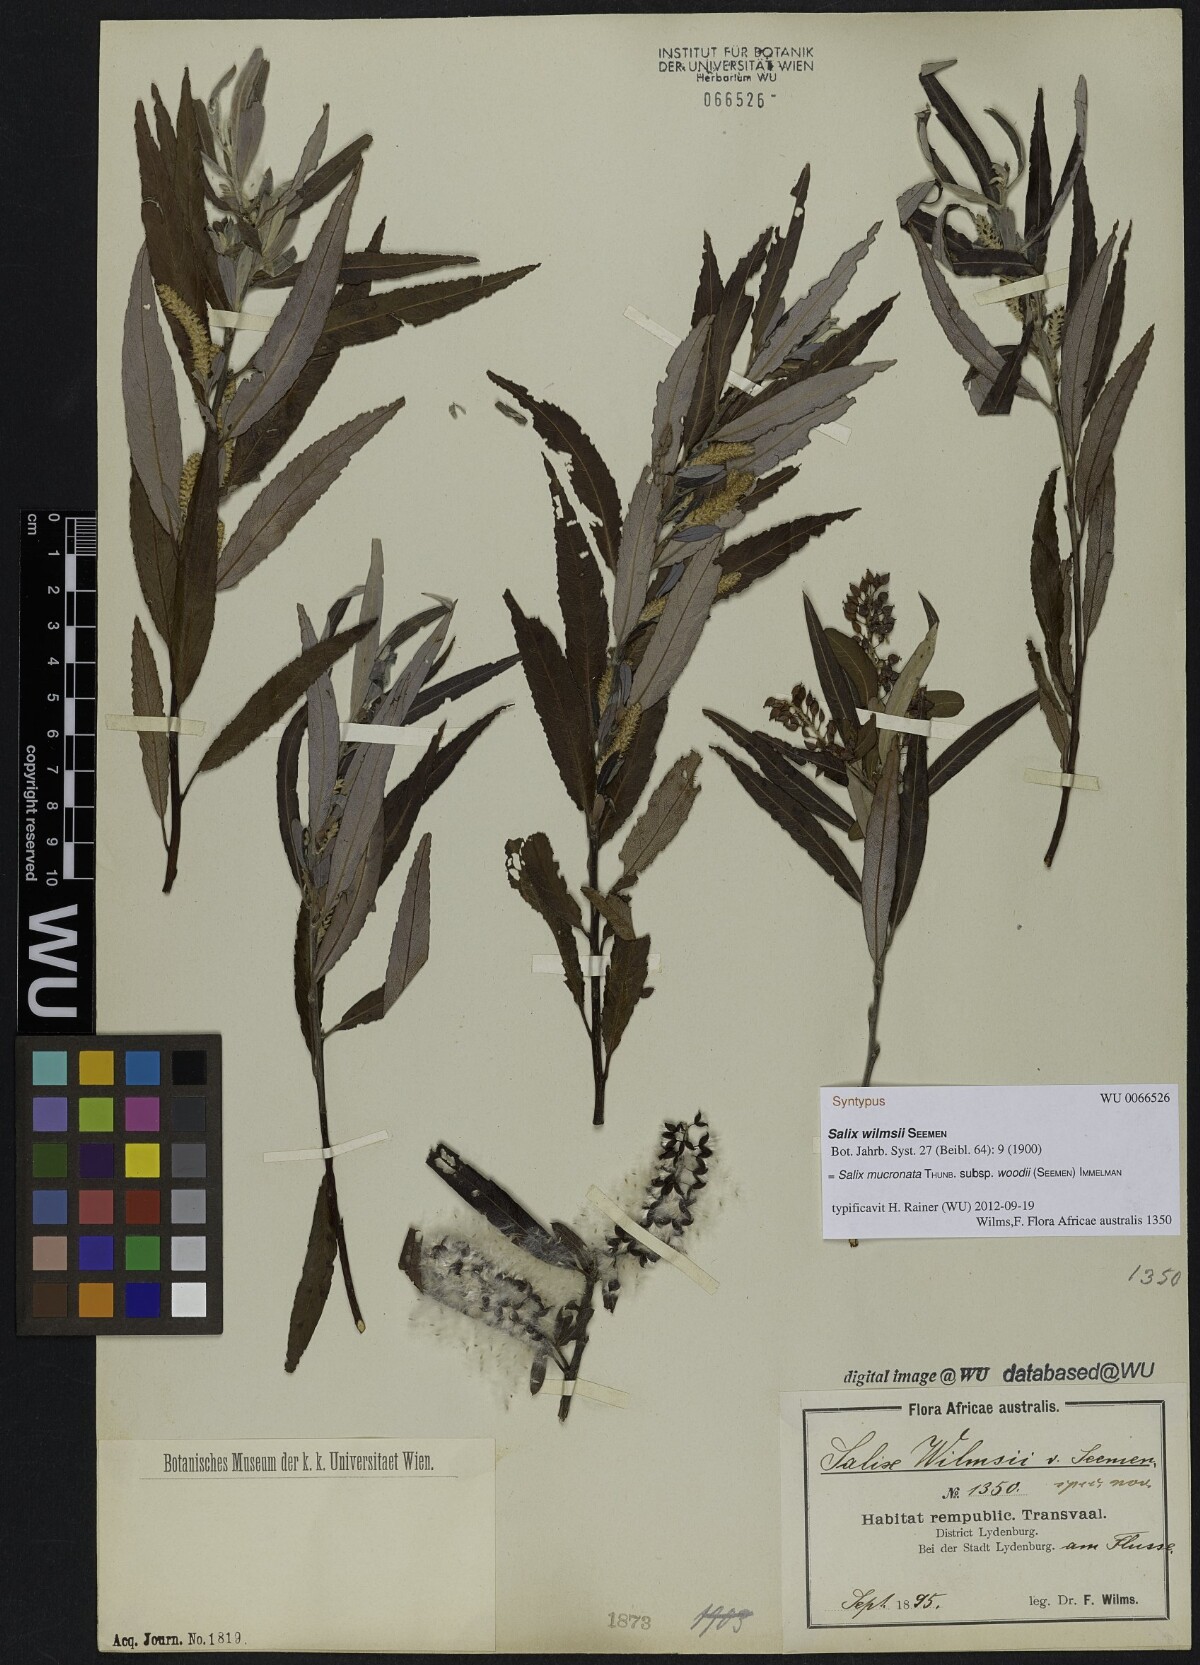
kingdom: Plantae
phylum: Tracheophyta
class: Magnoliopsida
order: Malpighiales
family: Salicaceae
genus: Salix
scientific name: Salix mucronata
